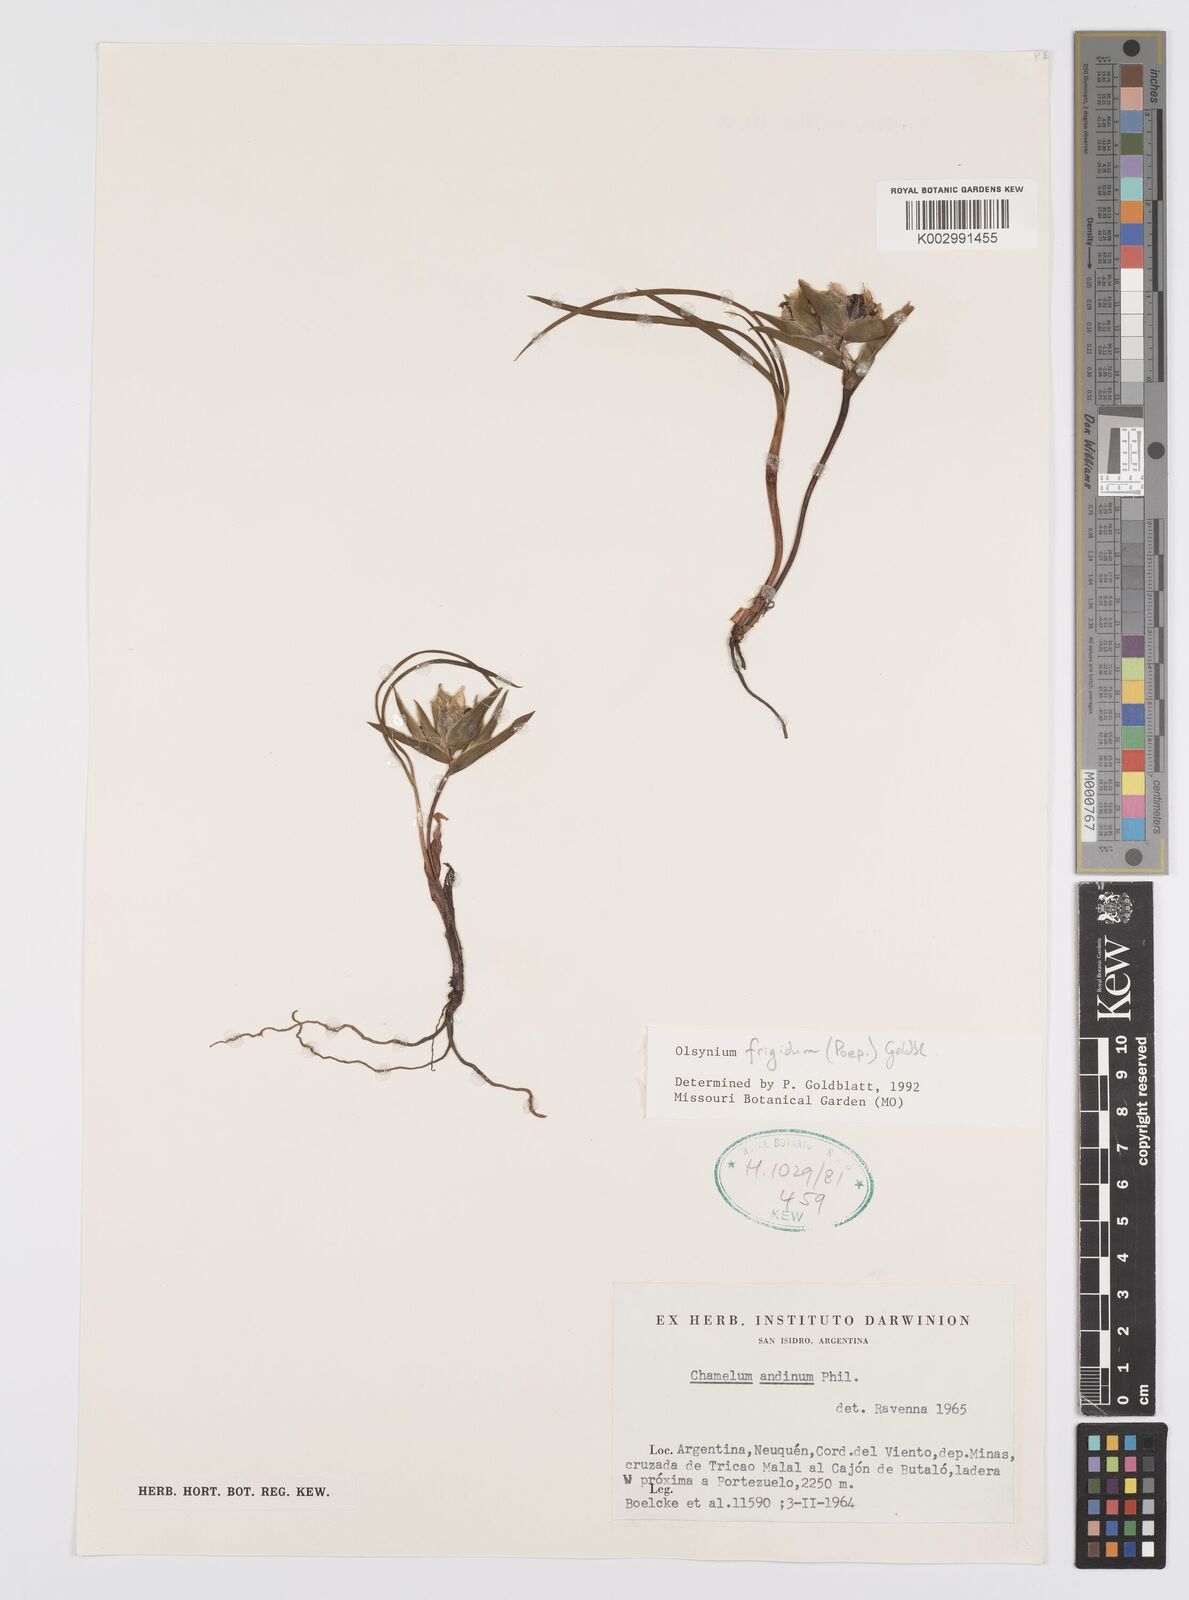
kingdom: Plantae
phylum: Tracheophyta
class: Liliopsida
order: Asparagales
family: Iridaceae
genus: Olsynium
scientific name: Olsynium obscurum
